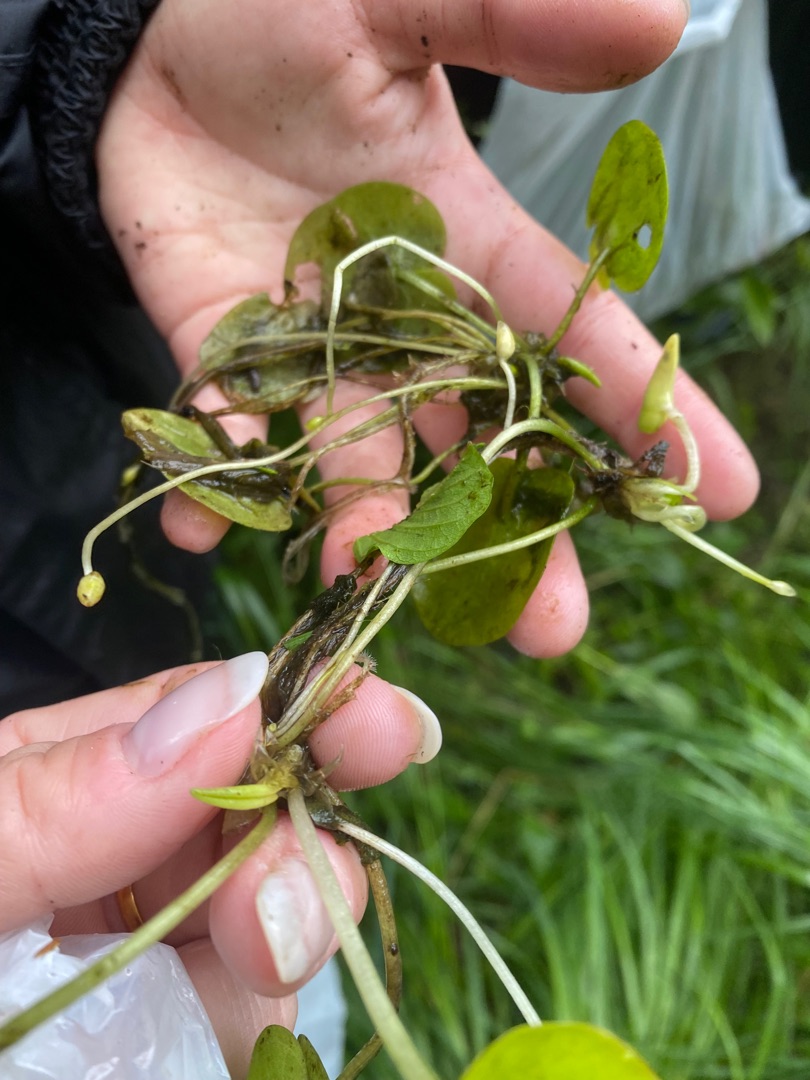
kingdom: Plantae
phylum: Tracheophyta
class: Liliopsida
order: Alismatales
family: Hydrocharitaceae
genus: Hydrocharis
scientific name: Hydrocharis morsus-ranae
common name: Frøbid
